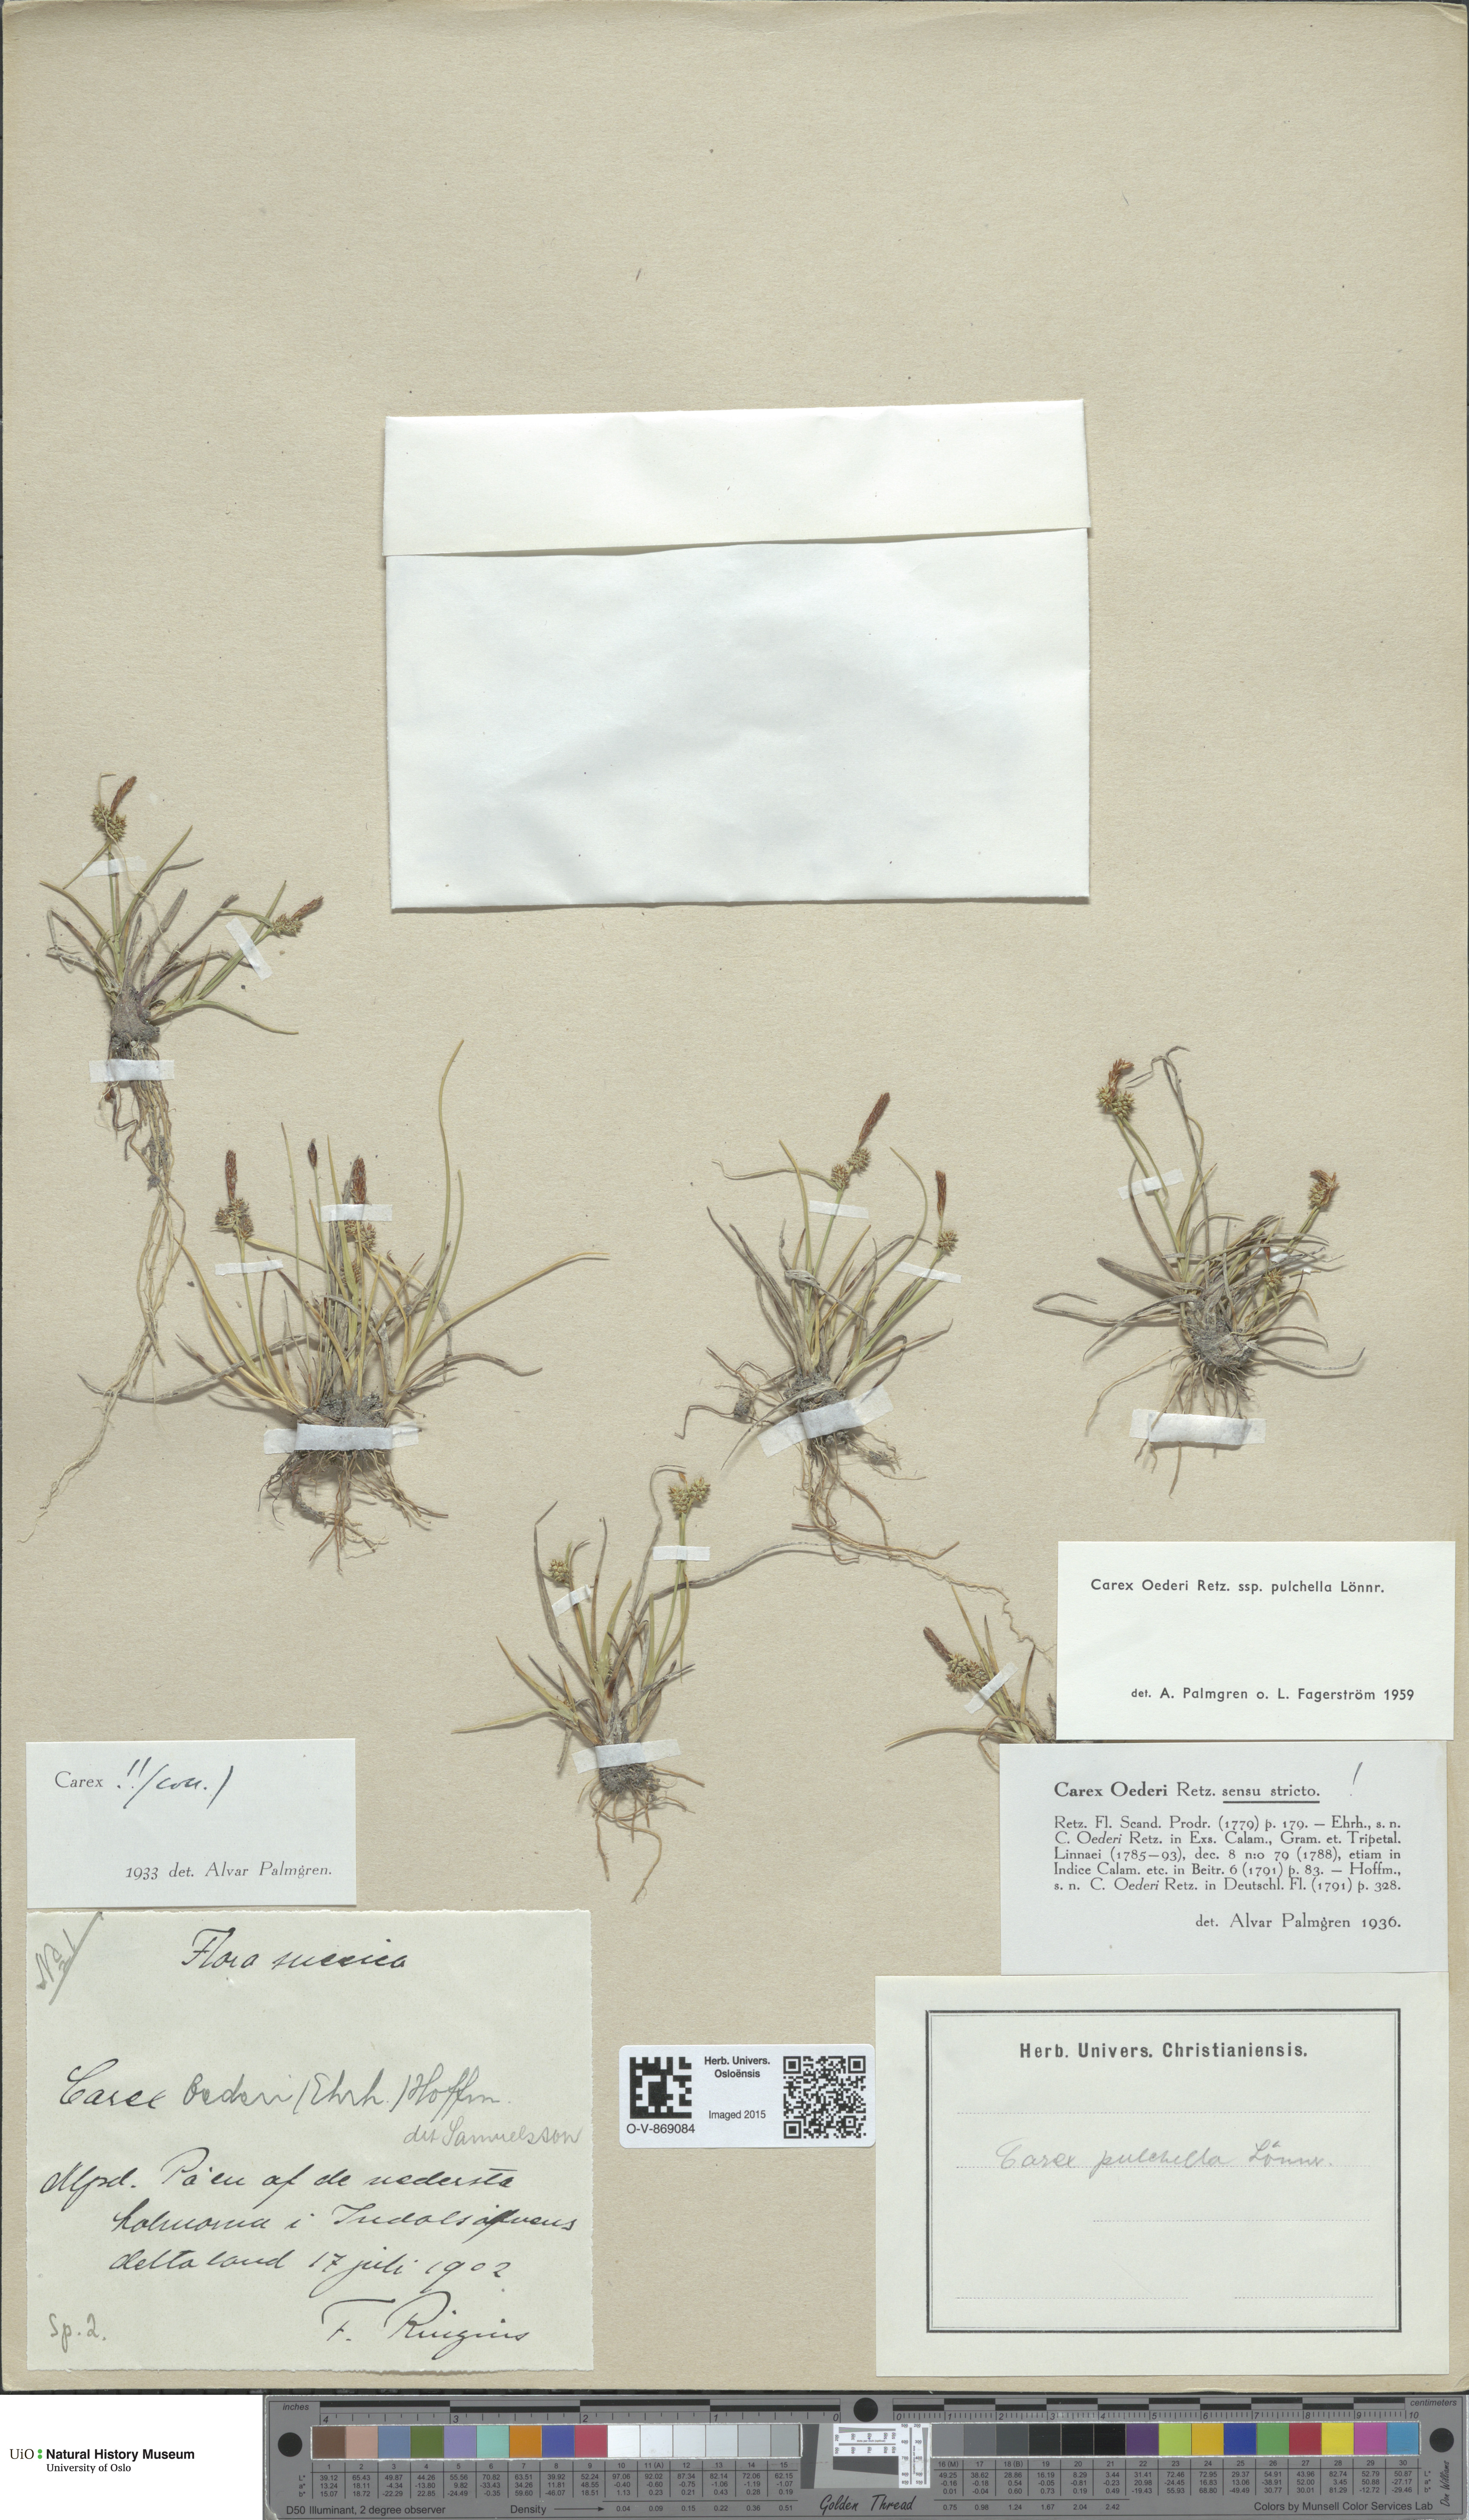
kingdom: Plantae
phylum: Tracheophyta
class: Liliopsida
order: Poales
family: Cyperaceae
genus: Carex
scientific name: Carex oederi
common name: Common & small-fruited yellow-sedge
